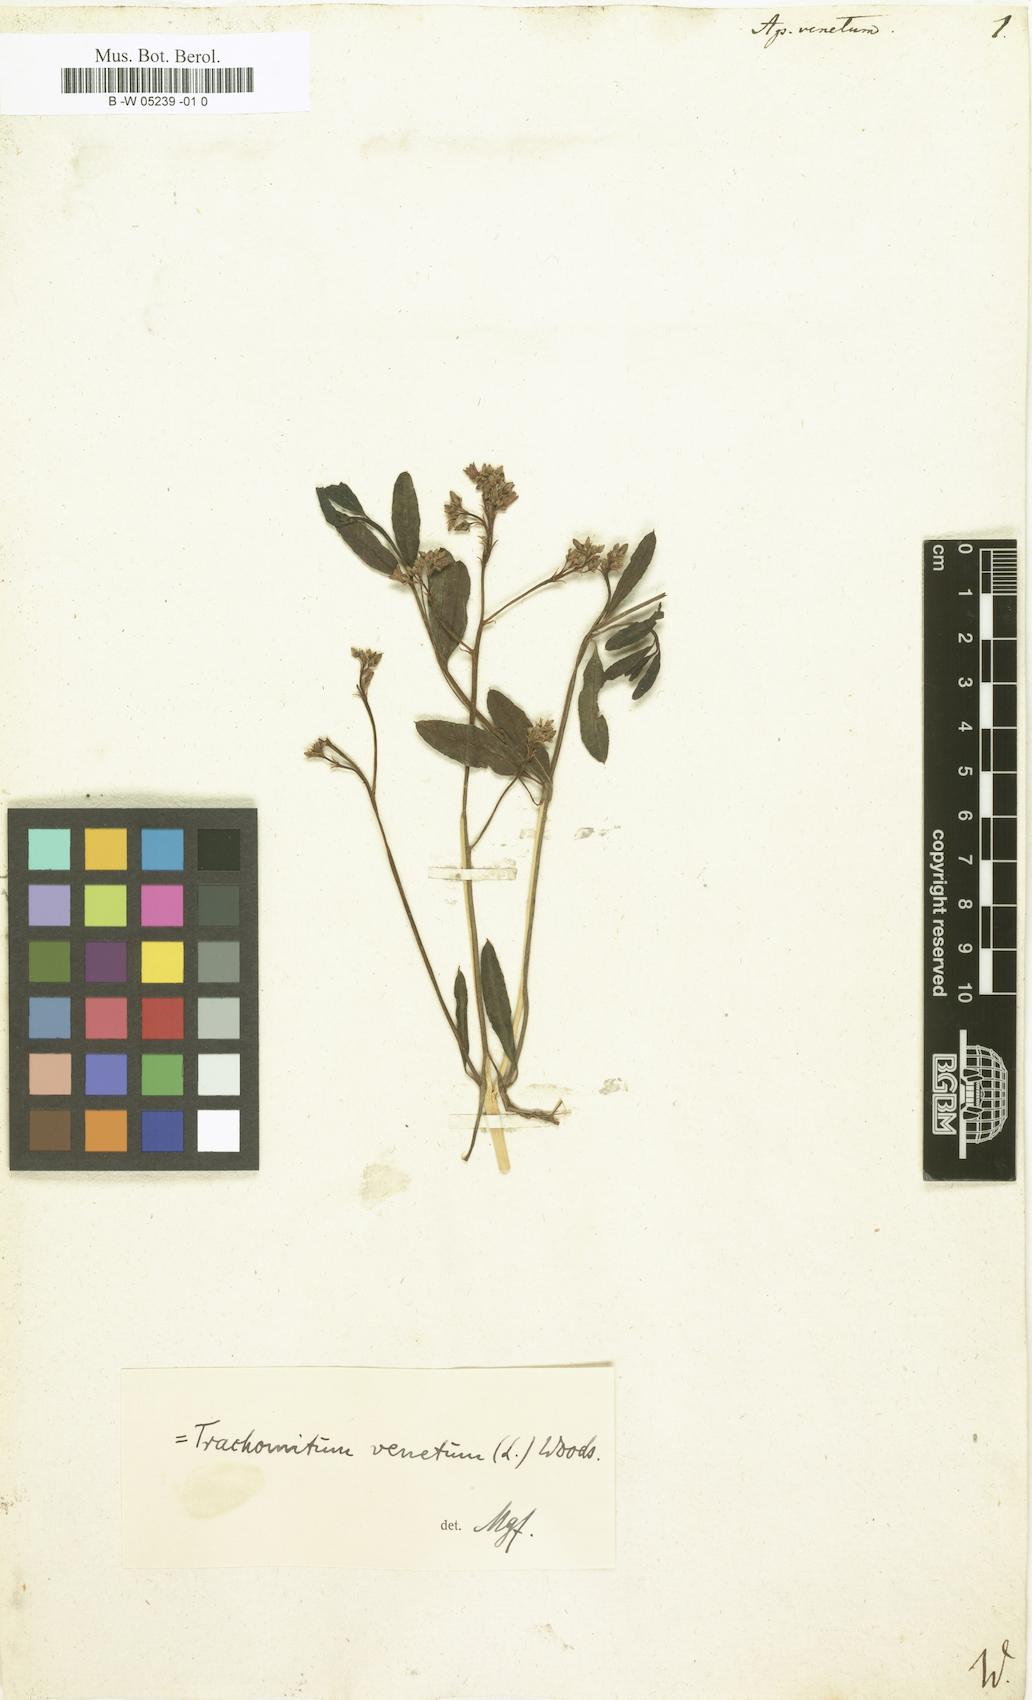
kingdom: Plantae
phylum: Tracheophyta
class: Magnoliopsida
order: Gentianales
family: Apocynaceae
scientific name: Apocynaceae
